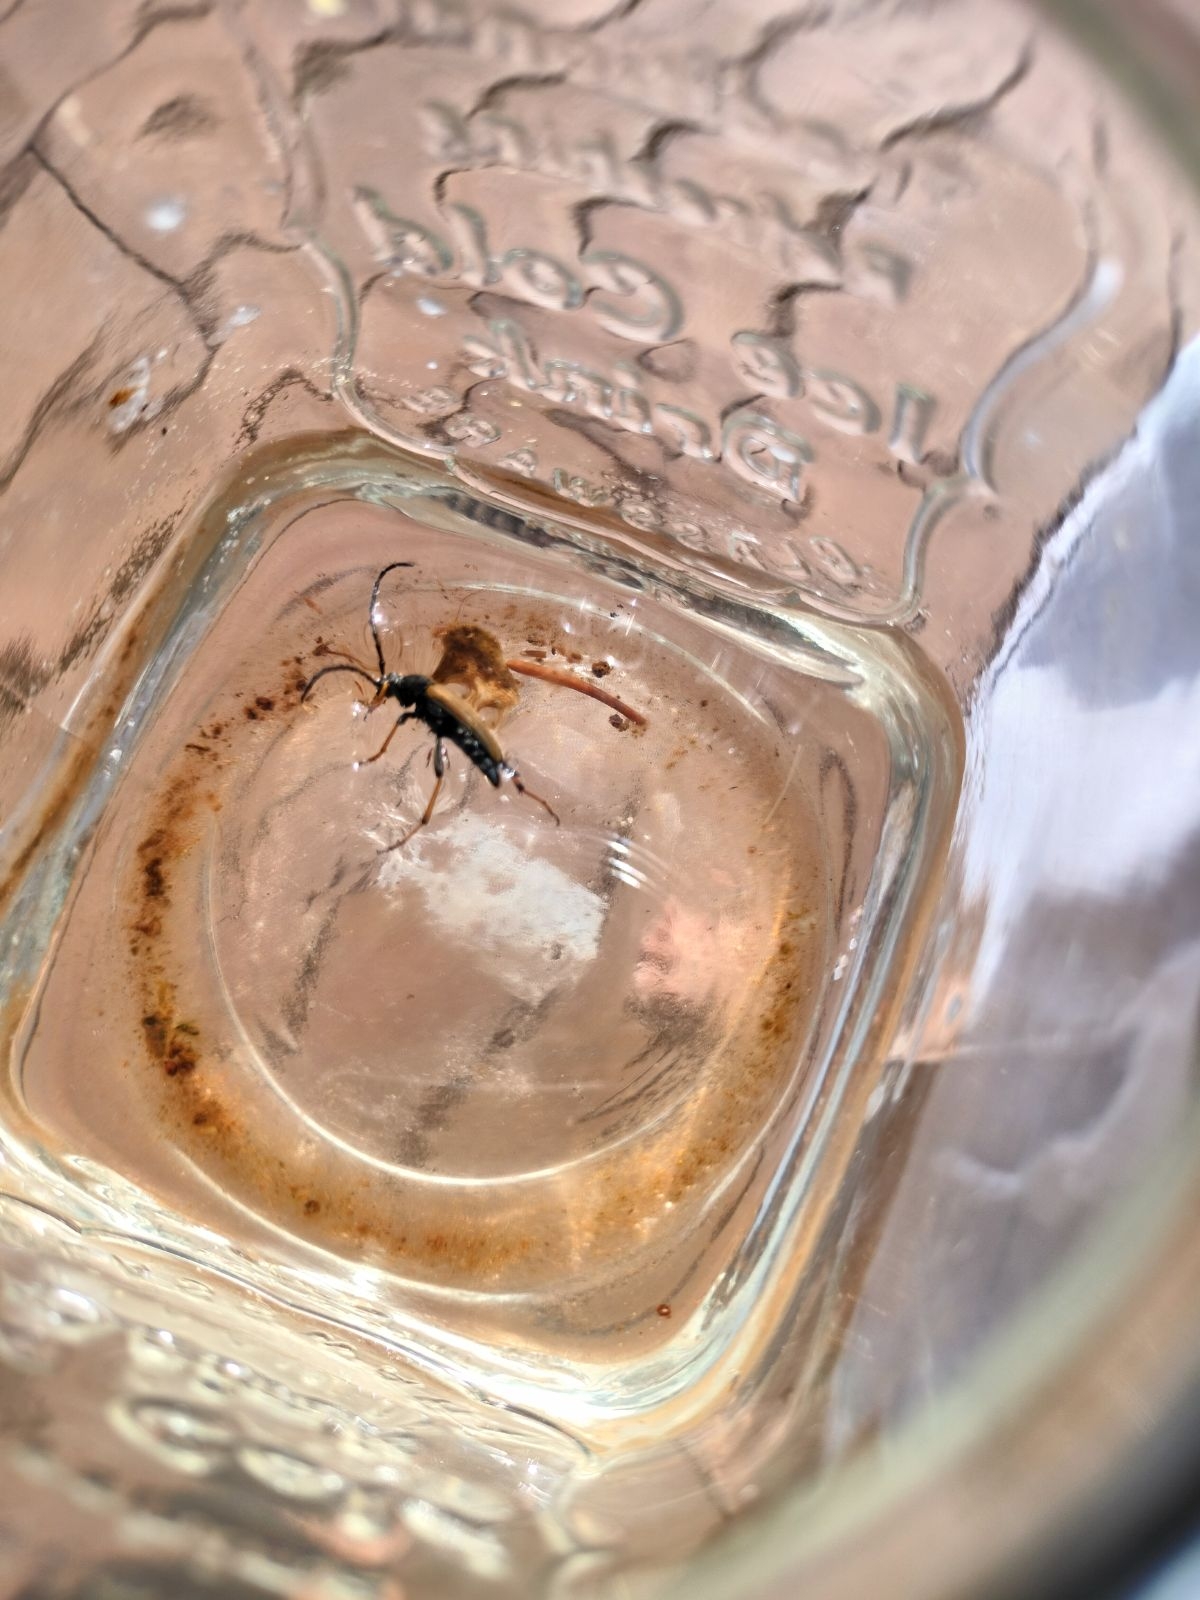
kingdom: Animalia
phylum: Arthropoda
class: Insecta
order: Coleoptera
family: Cerambycidae
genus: Stictoleptura
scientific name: Stictoleptura rubra
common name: Rød blomsterbuk
